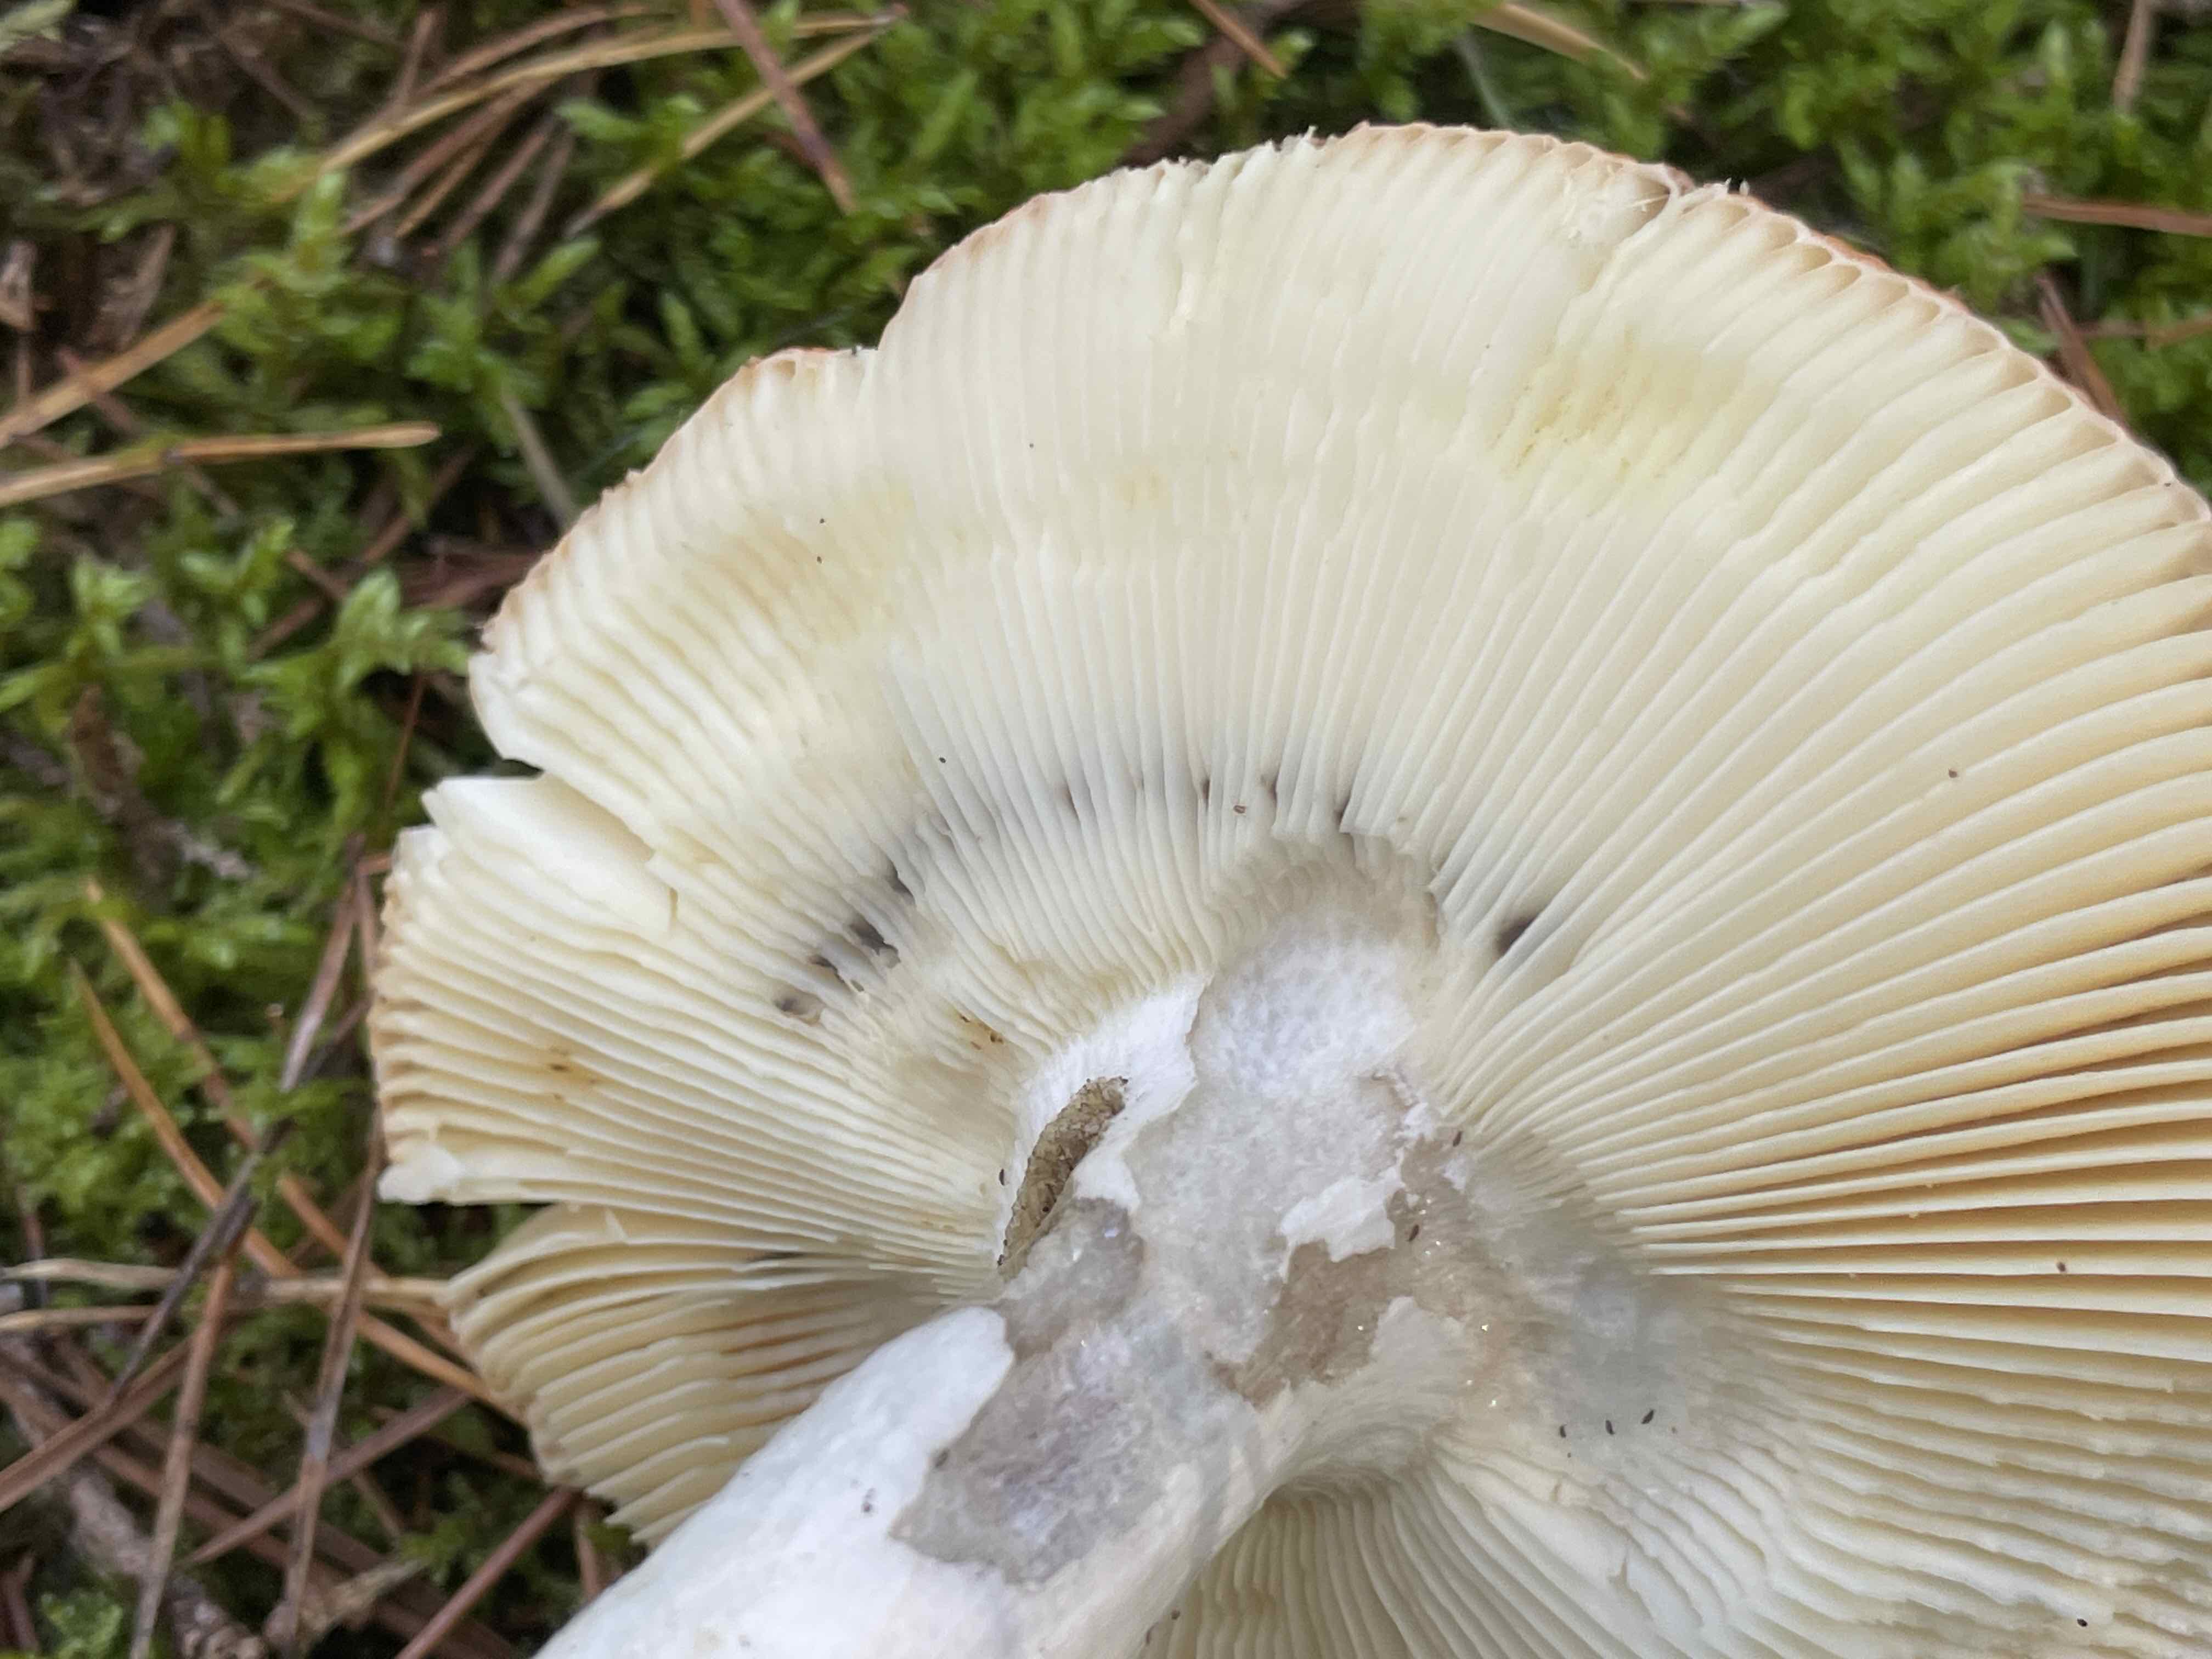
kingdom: Fungi
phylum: Basidiomycota
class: Agaricomycetes
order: Russulales
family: Russulaceae
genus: Russula
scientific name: Russula decolorans
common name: afblegende skørhat
